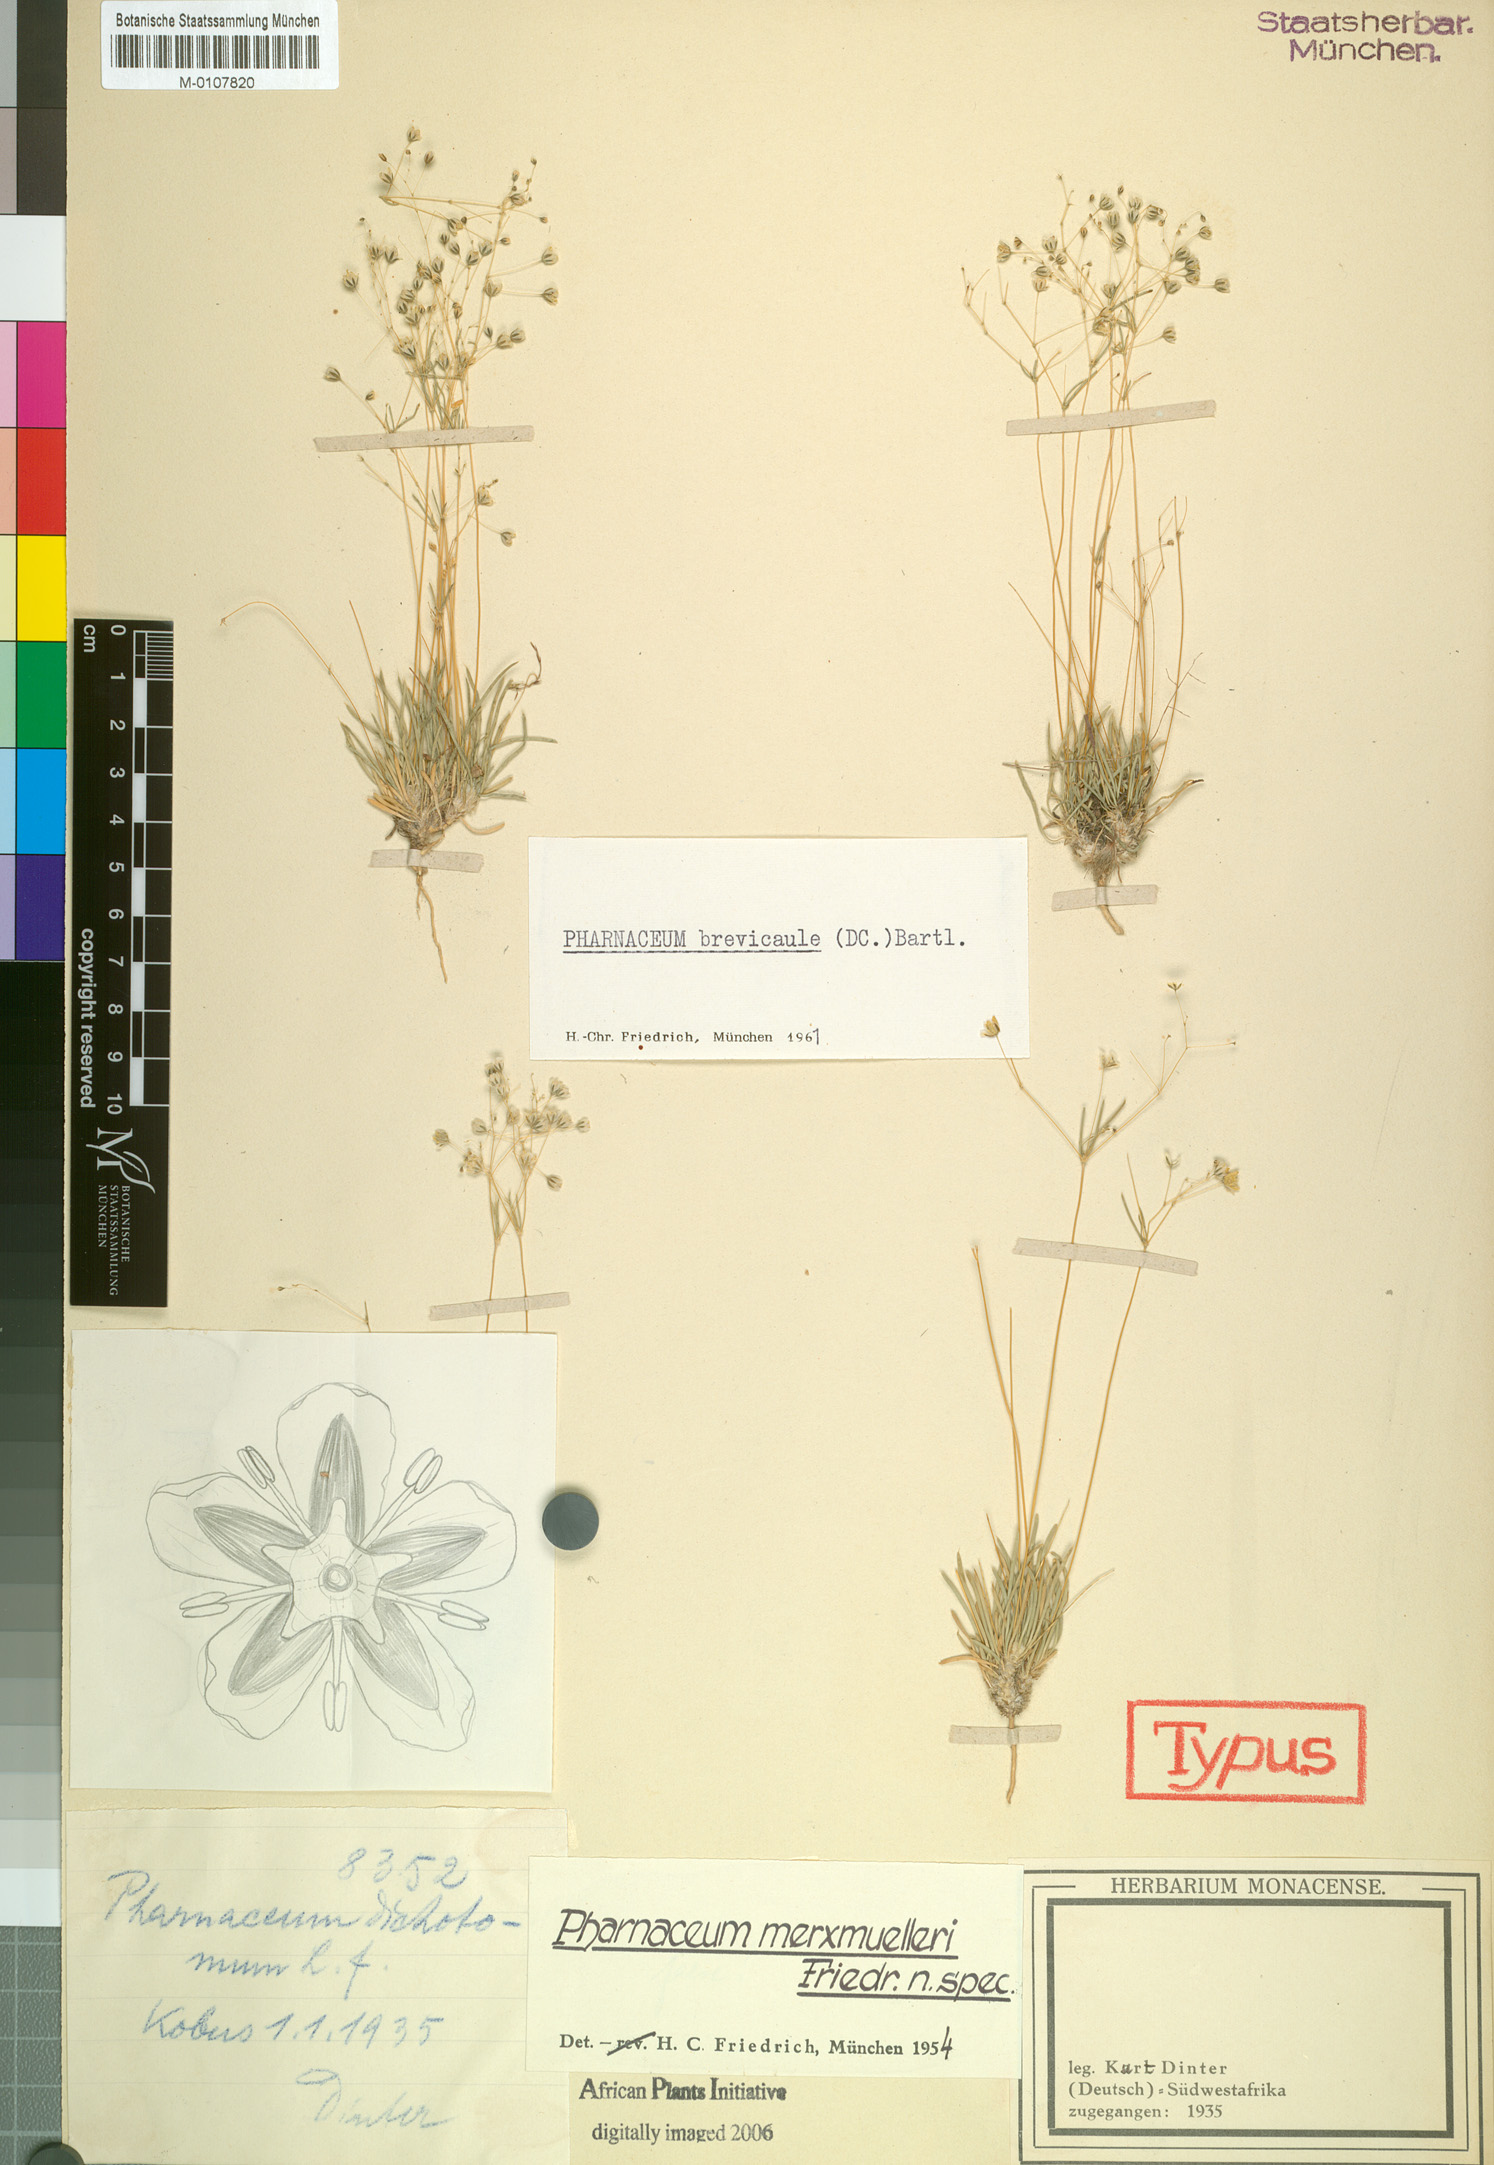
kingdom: Plantae
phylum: Tracheophyta
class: Magnoliopsida
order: Caryophyllales
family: Molluginaceae
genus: Pharnaceum
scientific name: Pharnaceum brevicaule
